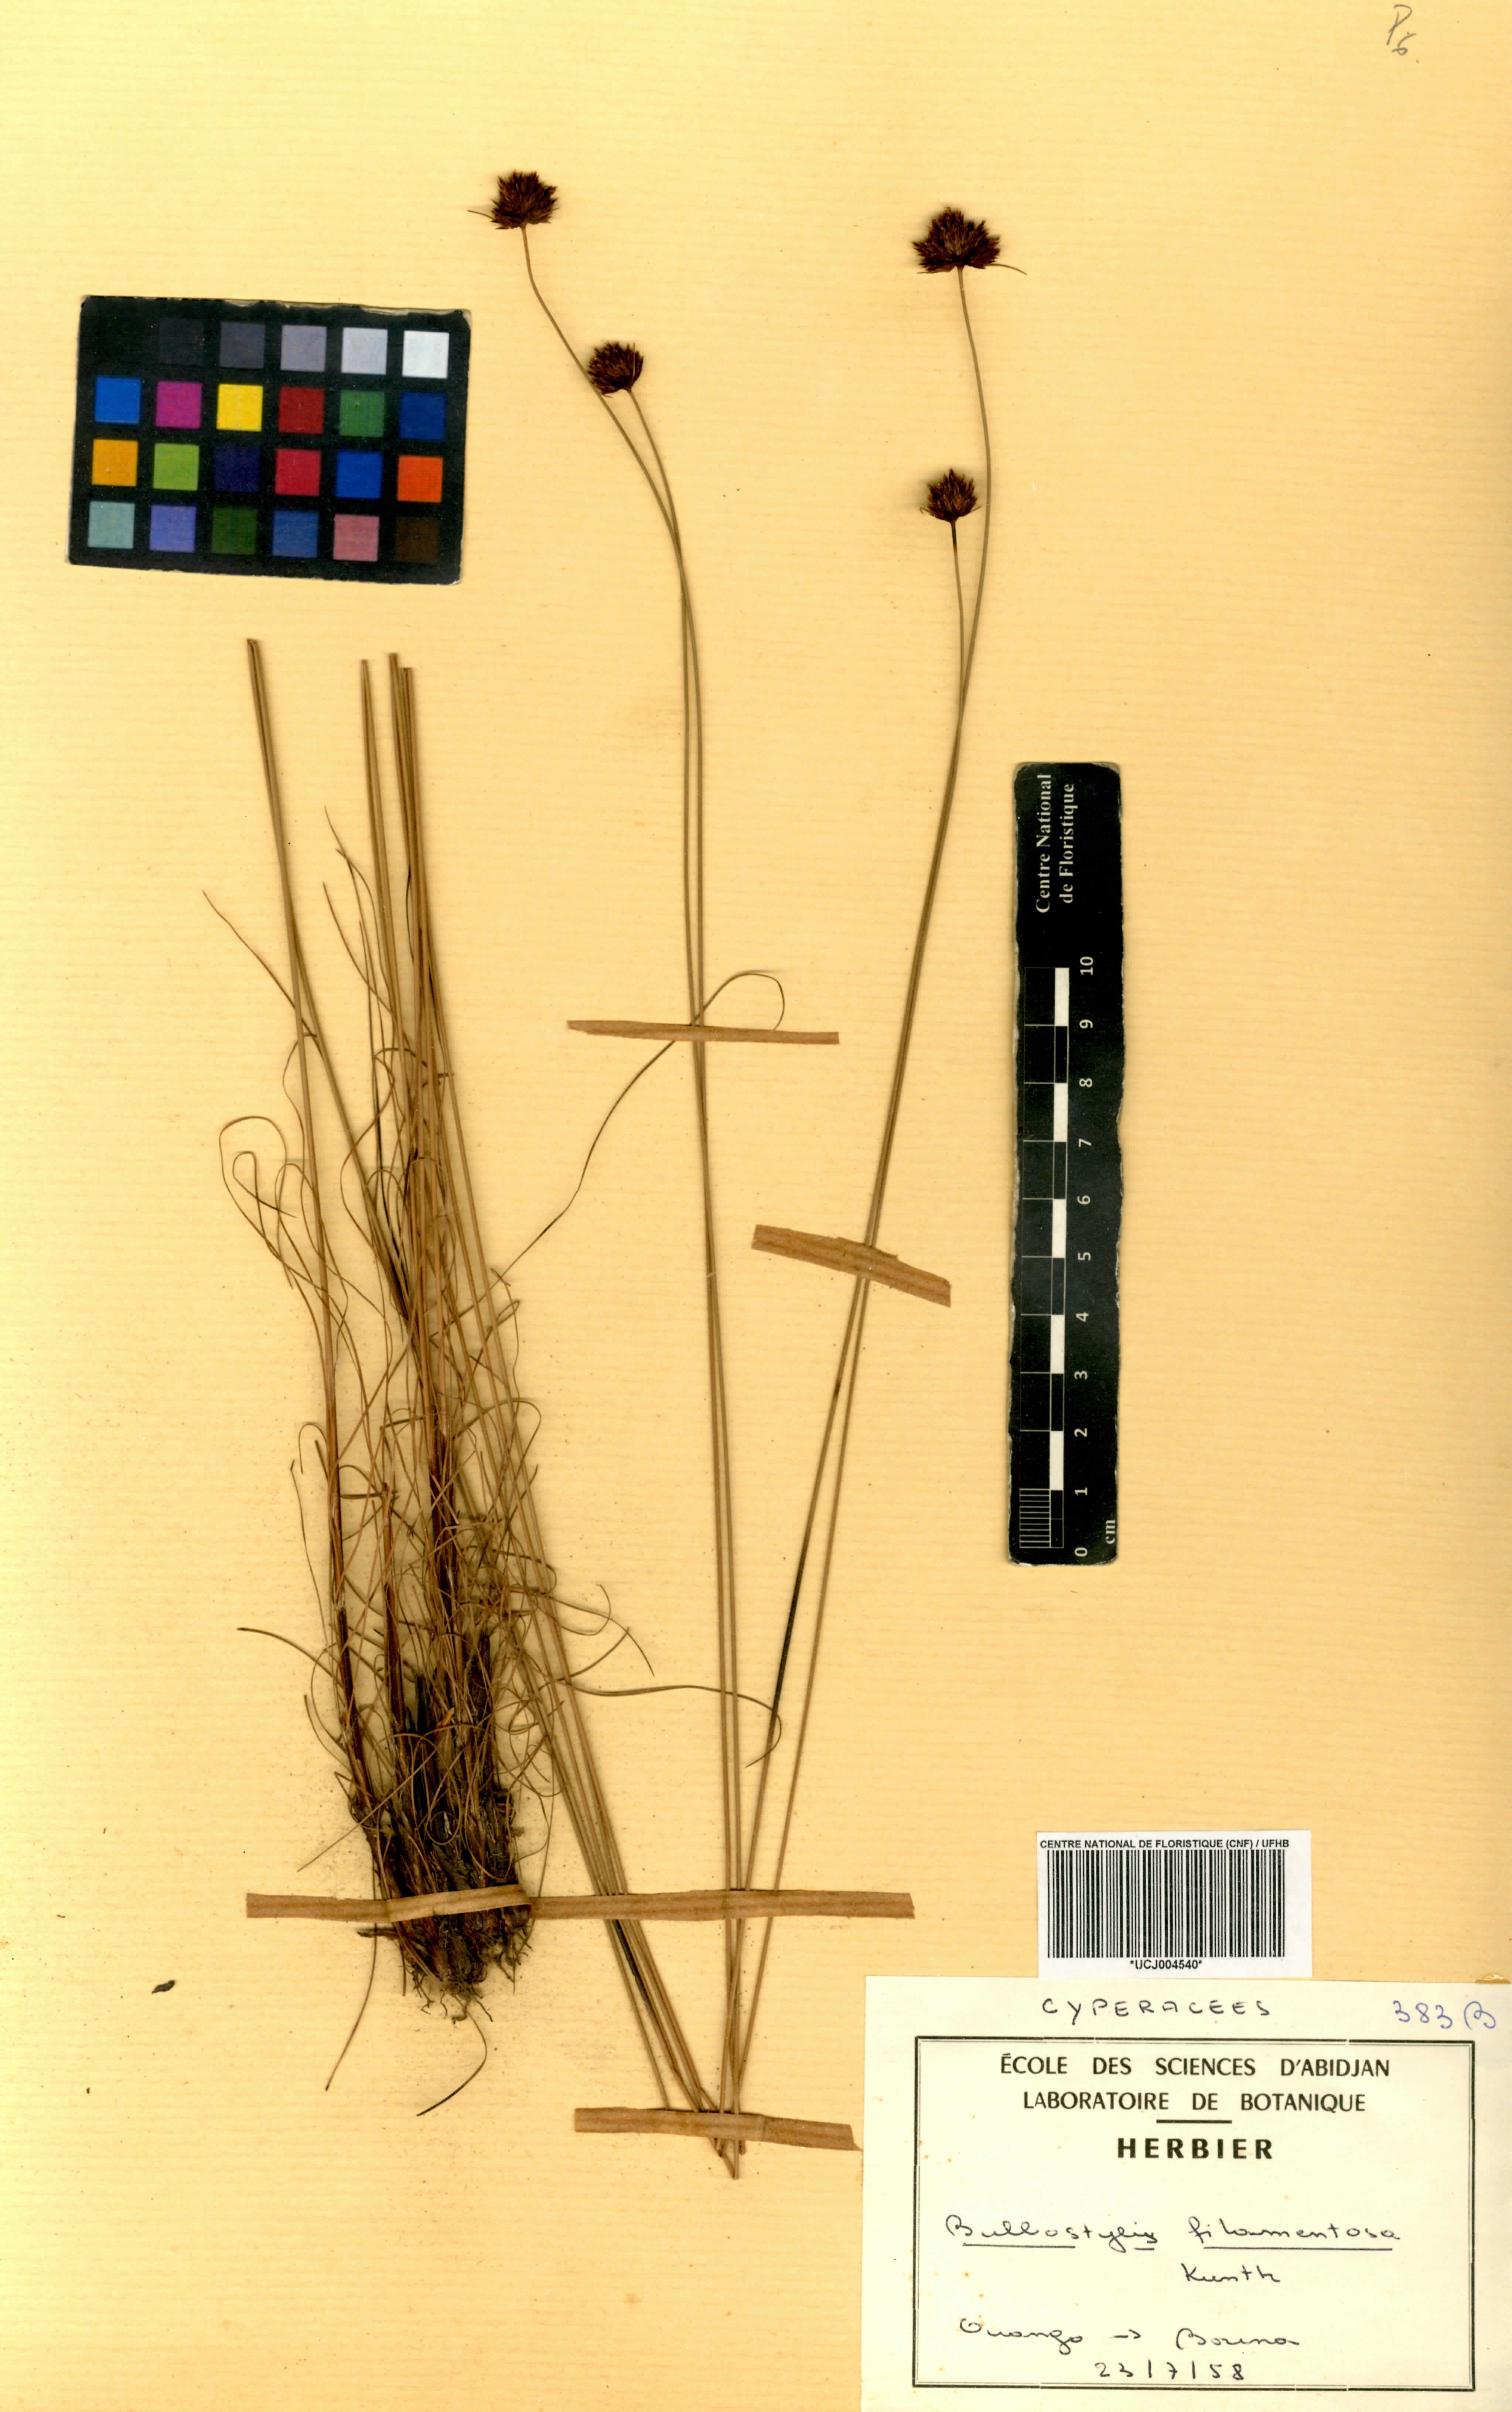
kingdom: Plantae
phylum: Tracheophyta
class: Liliopsida
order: Poales
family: Cyperaceae
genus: Bulbostylis
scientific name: Bulbostylis filamentosa
